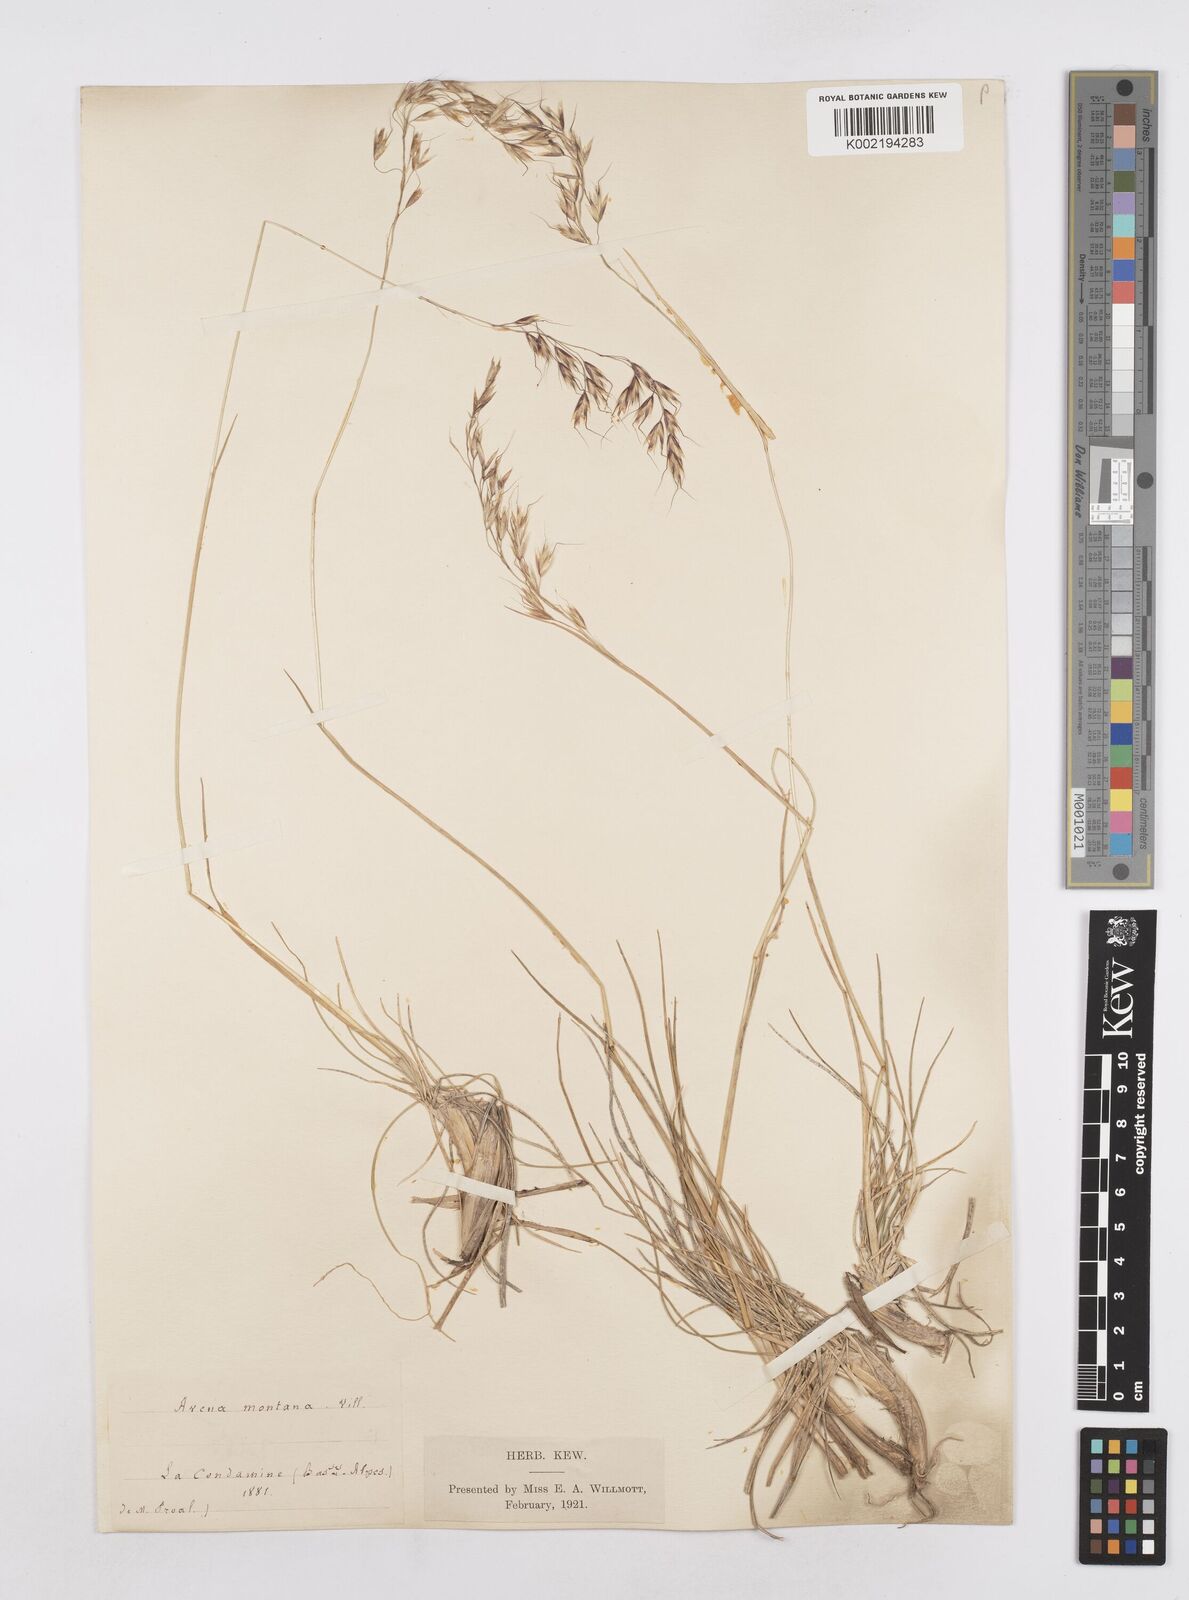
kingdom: Plantae
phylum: Tracheophyta
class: Liliopsida
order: Poales
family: Poaceae
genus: Helictotrichon
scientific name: Helictotrichon sedenense
